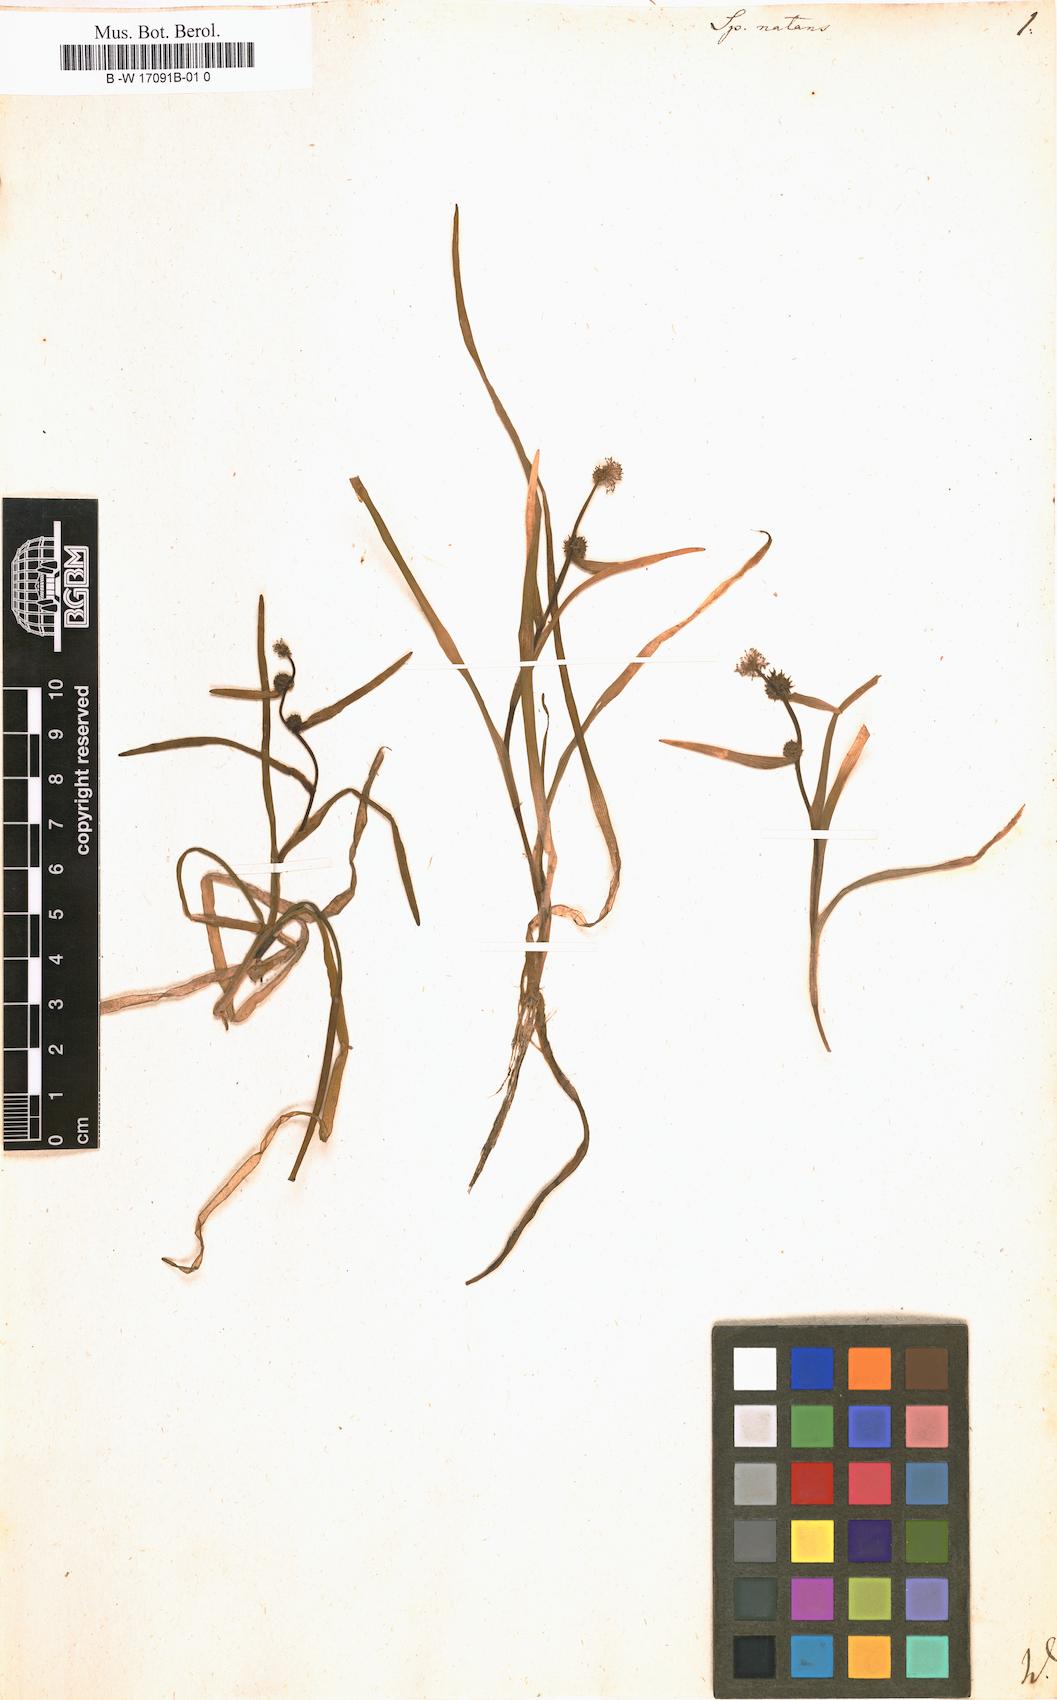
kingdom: Plantae
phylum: Tracheophyta
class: Liliopsida
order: Poales
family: Typhaceae
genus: Sparganium
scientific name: Sparganium natans
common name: Least bur-reed
